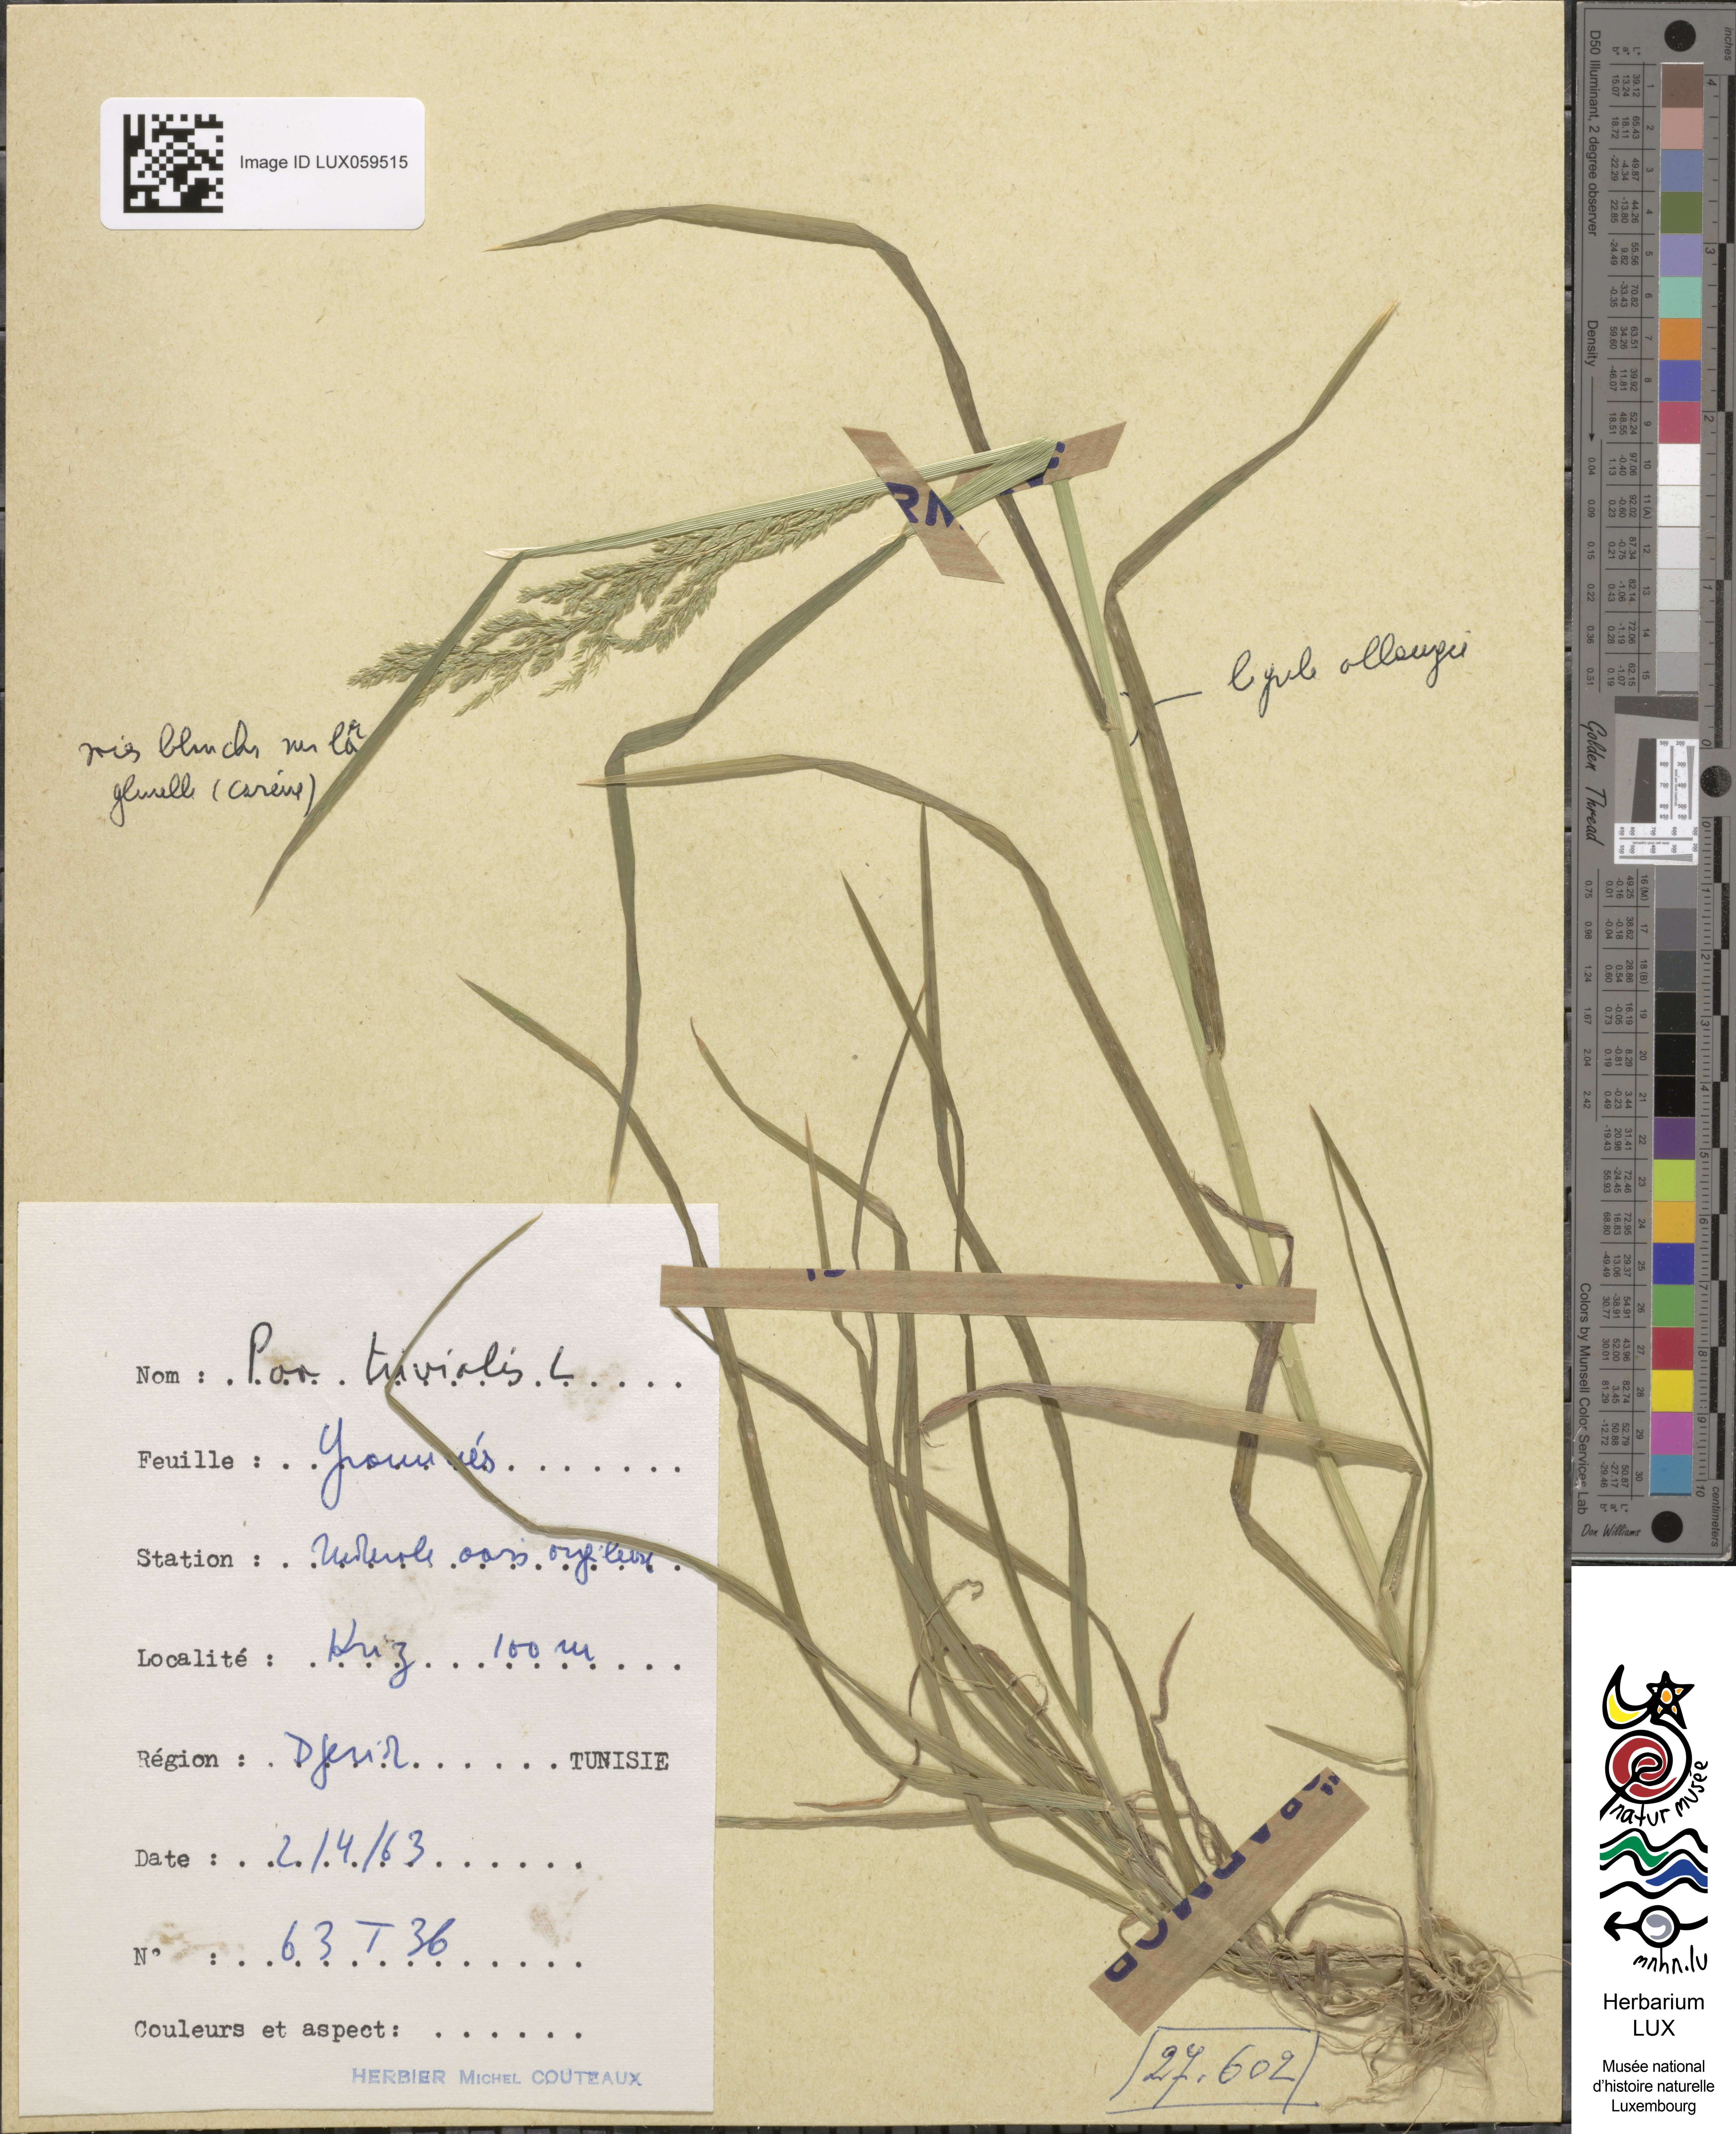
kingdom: Plantae
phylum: Tracheophyta
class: Liliopsida
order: Poales
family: Poaceae
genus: Poa
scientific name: Poa trivialis
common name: Rough bluegrass
